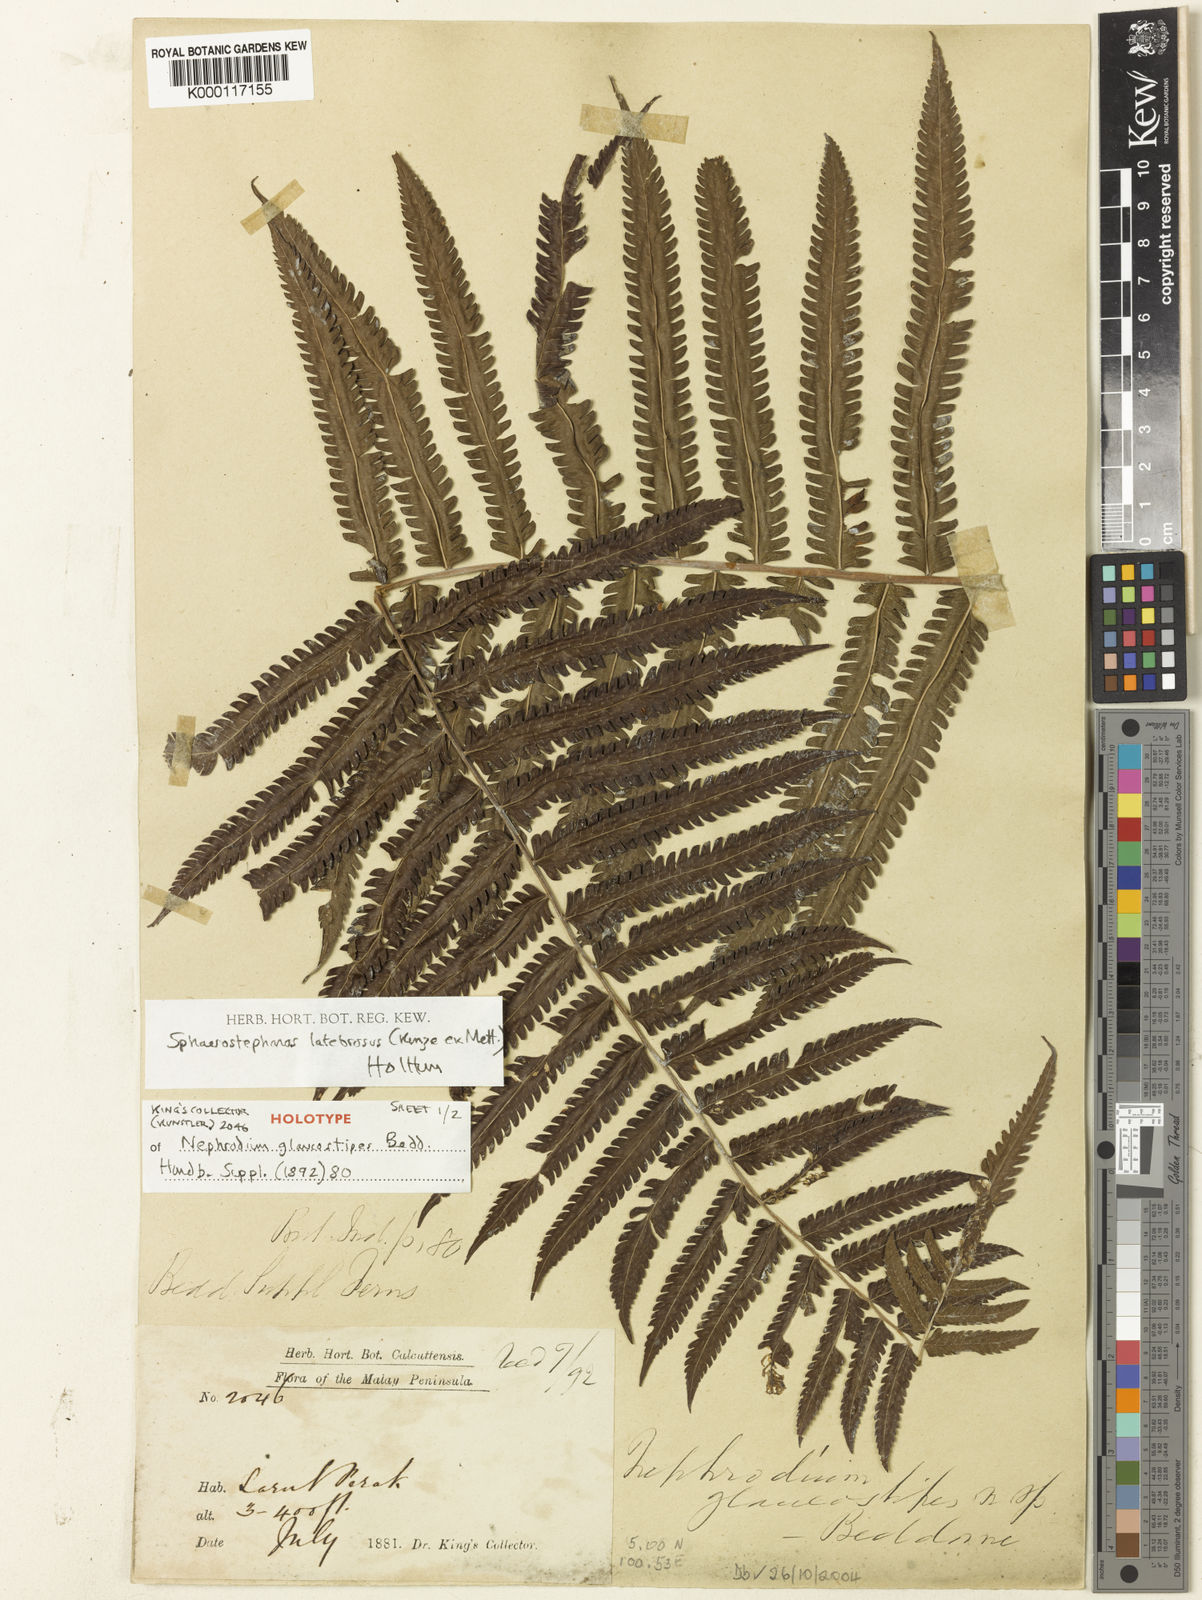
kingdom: Plantae
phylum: Tracheophyta
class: Polypodiopsida
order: Polypodiales
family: Thelypteridaceae
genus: Sphaerostephanos
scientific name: Sphaerostephanos latebrosus
